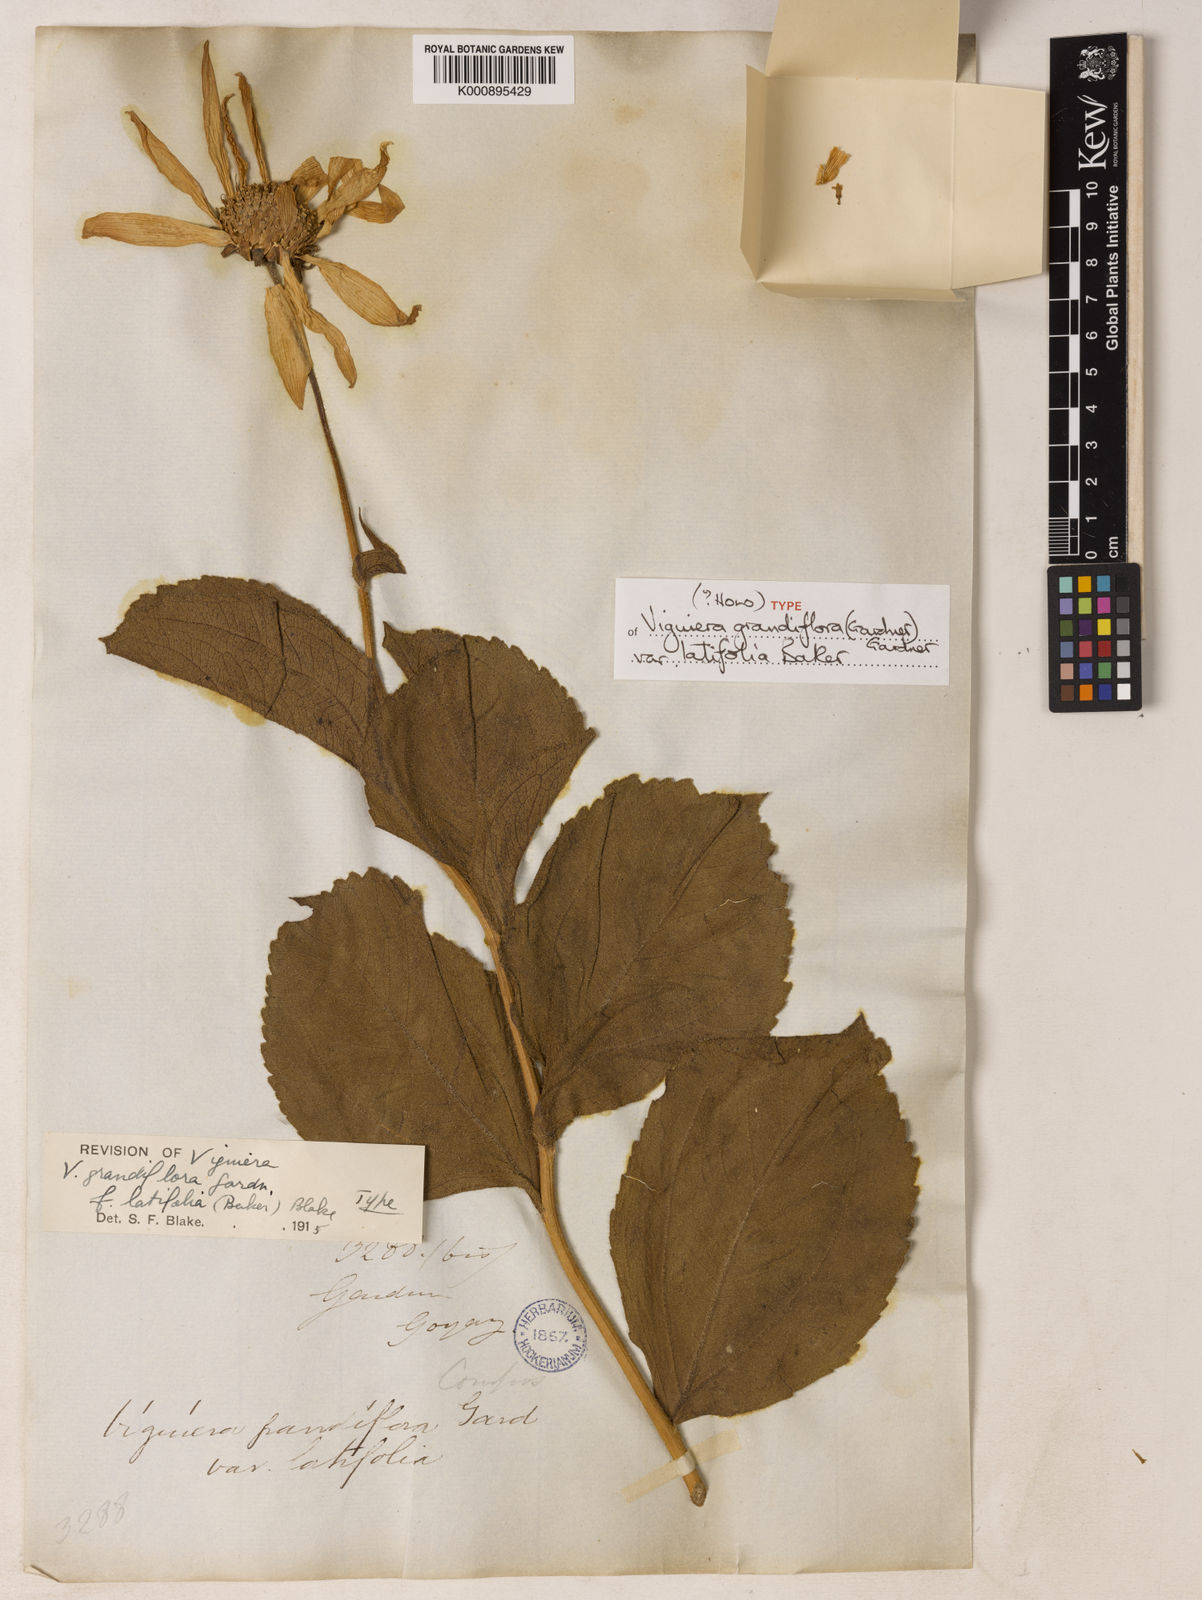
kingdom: Plantae
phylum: Tracheophyta
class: Magnoliopsida
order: Asterales
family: Asteraceae
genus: Aldama
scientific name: Aldama grandiflora
